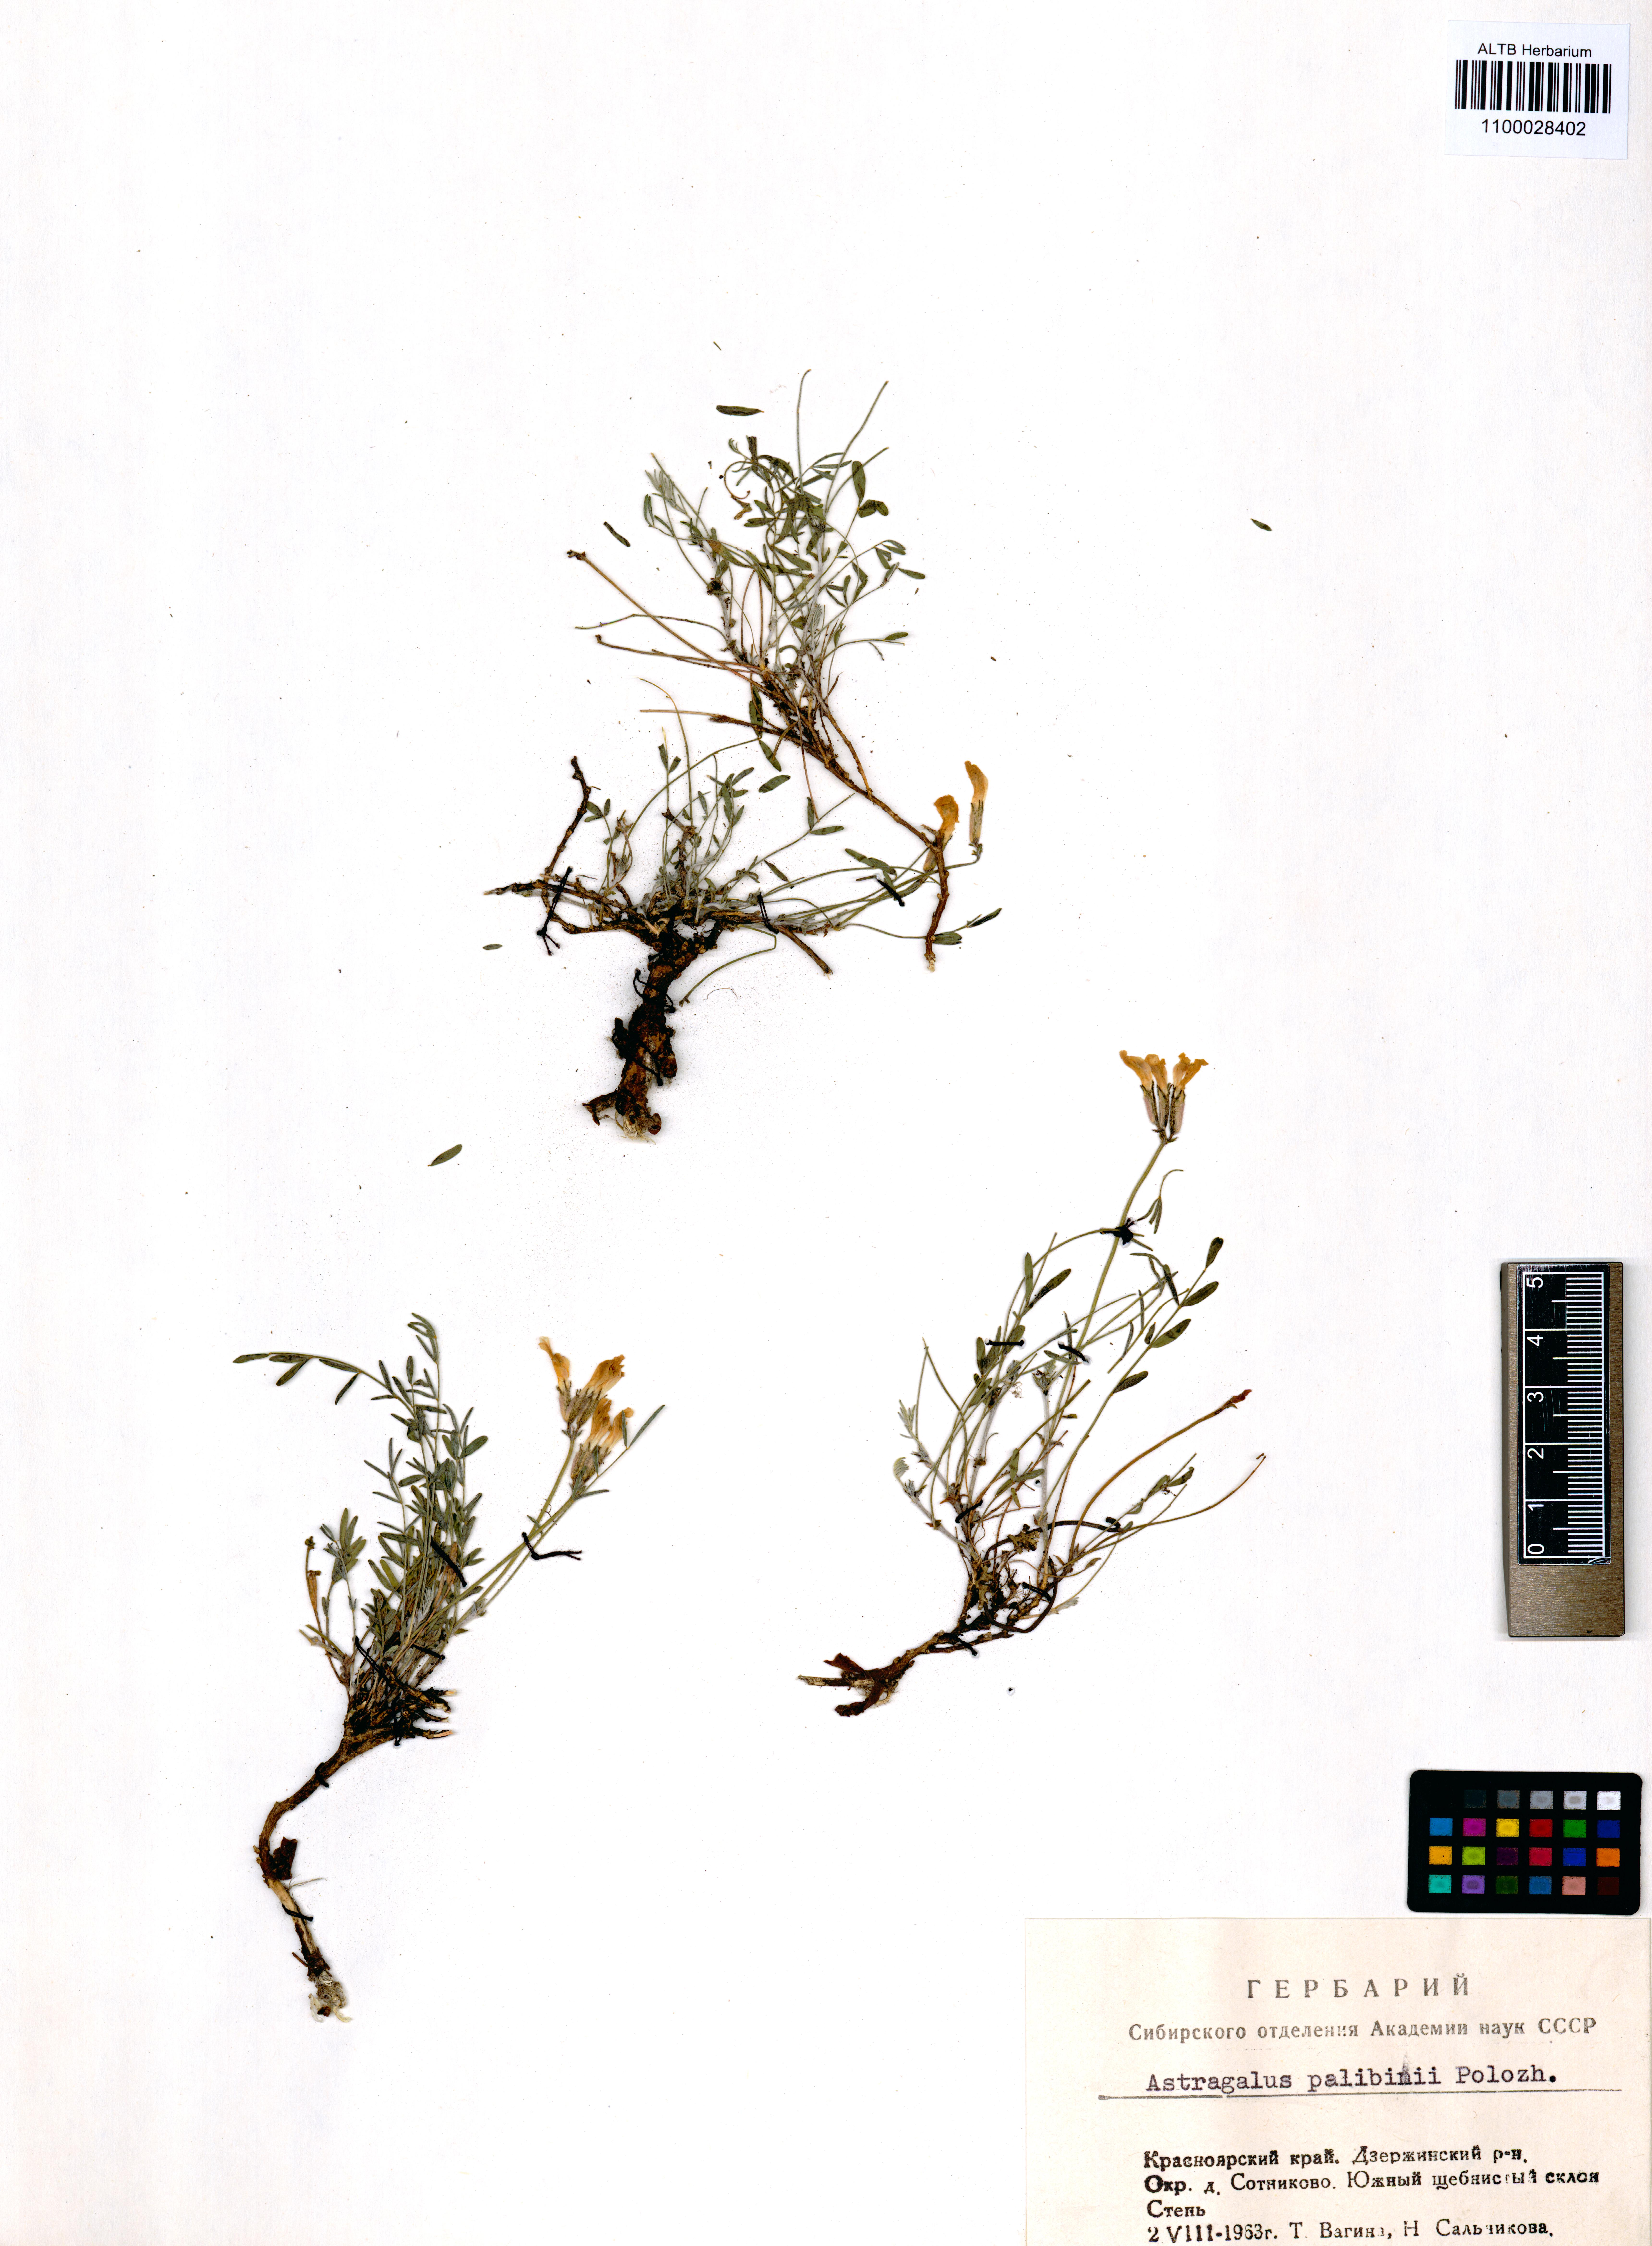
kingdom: Plantae
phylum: Tracheophyta
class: Magnoliopsida
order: Fabales
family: Fabaceae
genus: Astragalus
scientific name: Astragalus palibinii
